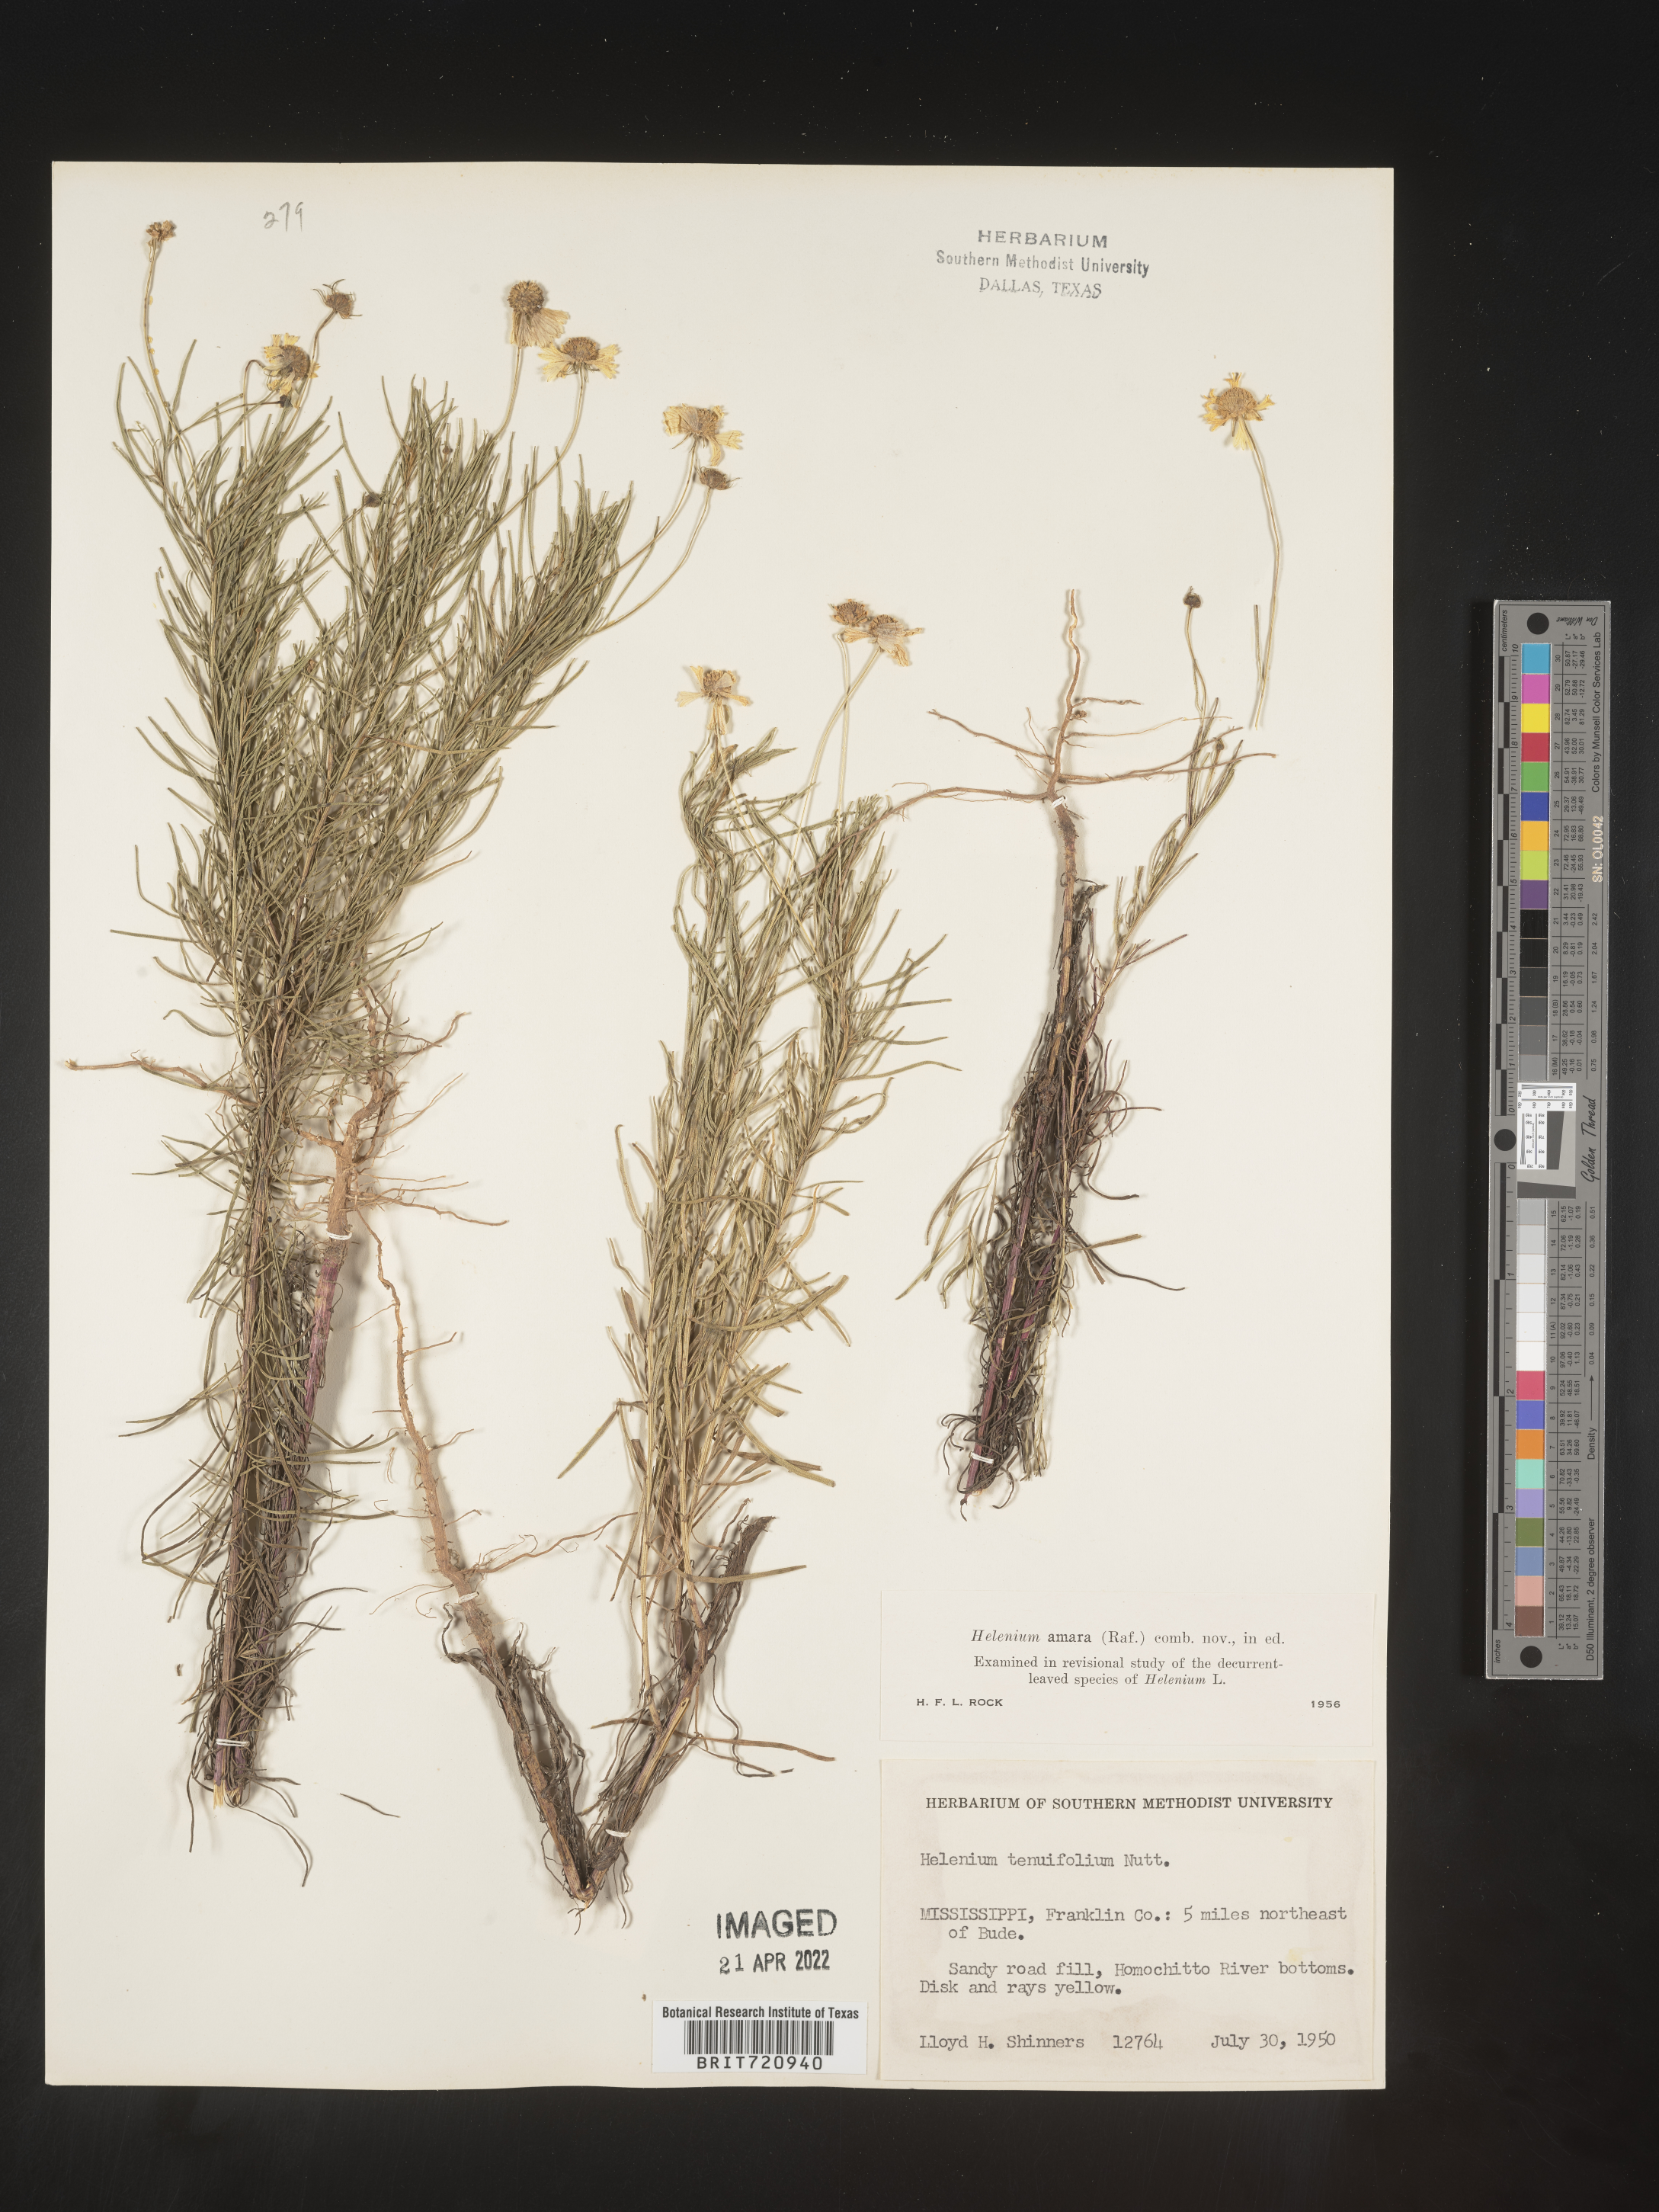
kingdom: Plantae
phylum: Tracheophyta
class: Magnoliopsida
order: Asterales
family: Asteraceae
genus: Helenium
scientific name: Helenium amarum
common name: Bitter sneezeweed
